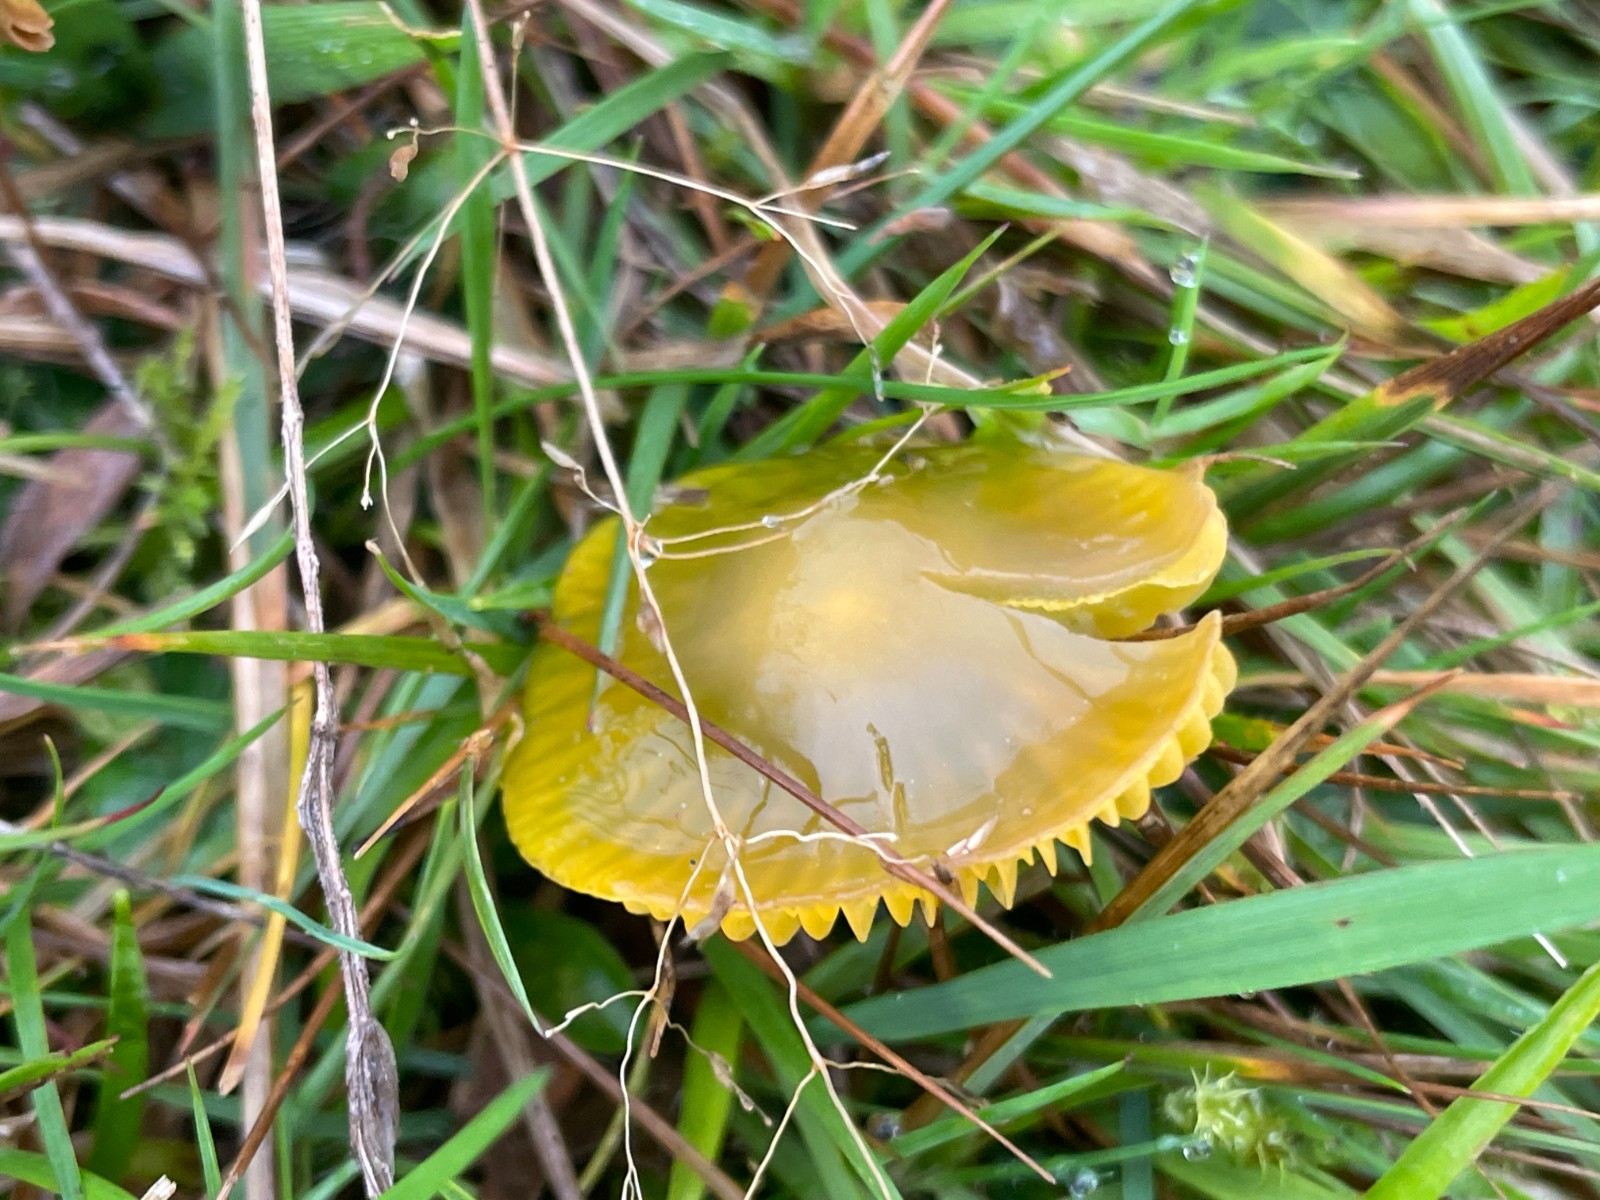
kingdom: Fungi
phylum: Basidiomycota
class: Agaricomycetes
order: Agaricales
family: Hygrophoraceae
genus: Gliophorus
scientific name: Gliophorus psittacinus
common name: papegøje-vokshat
